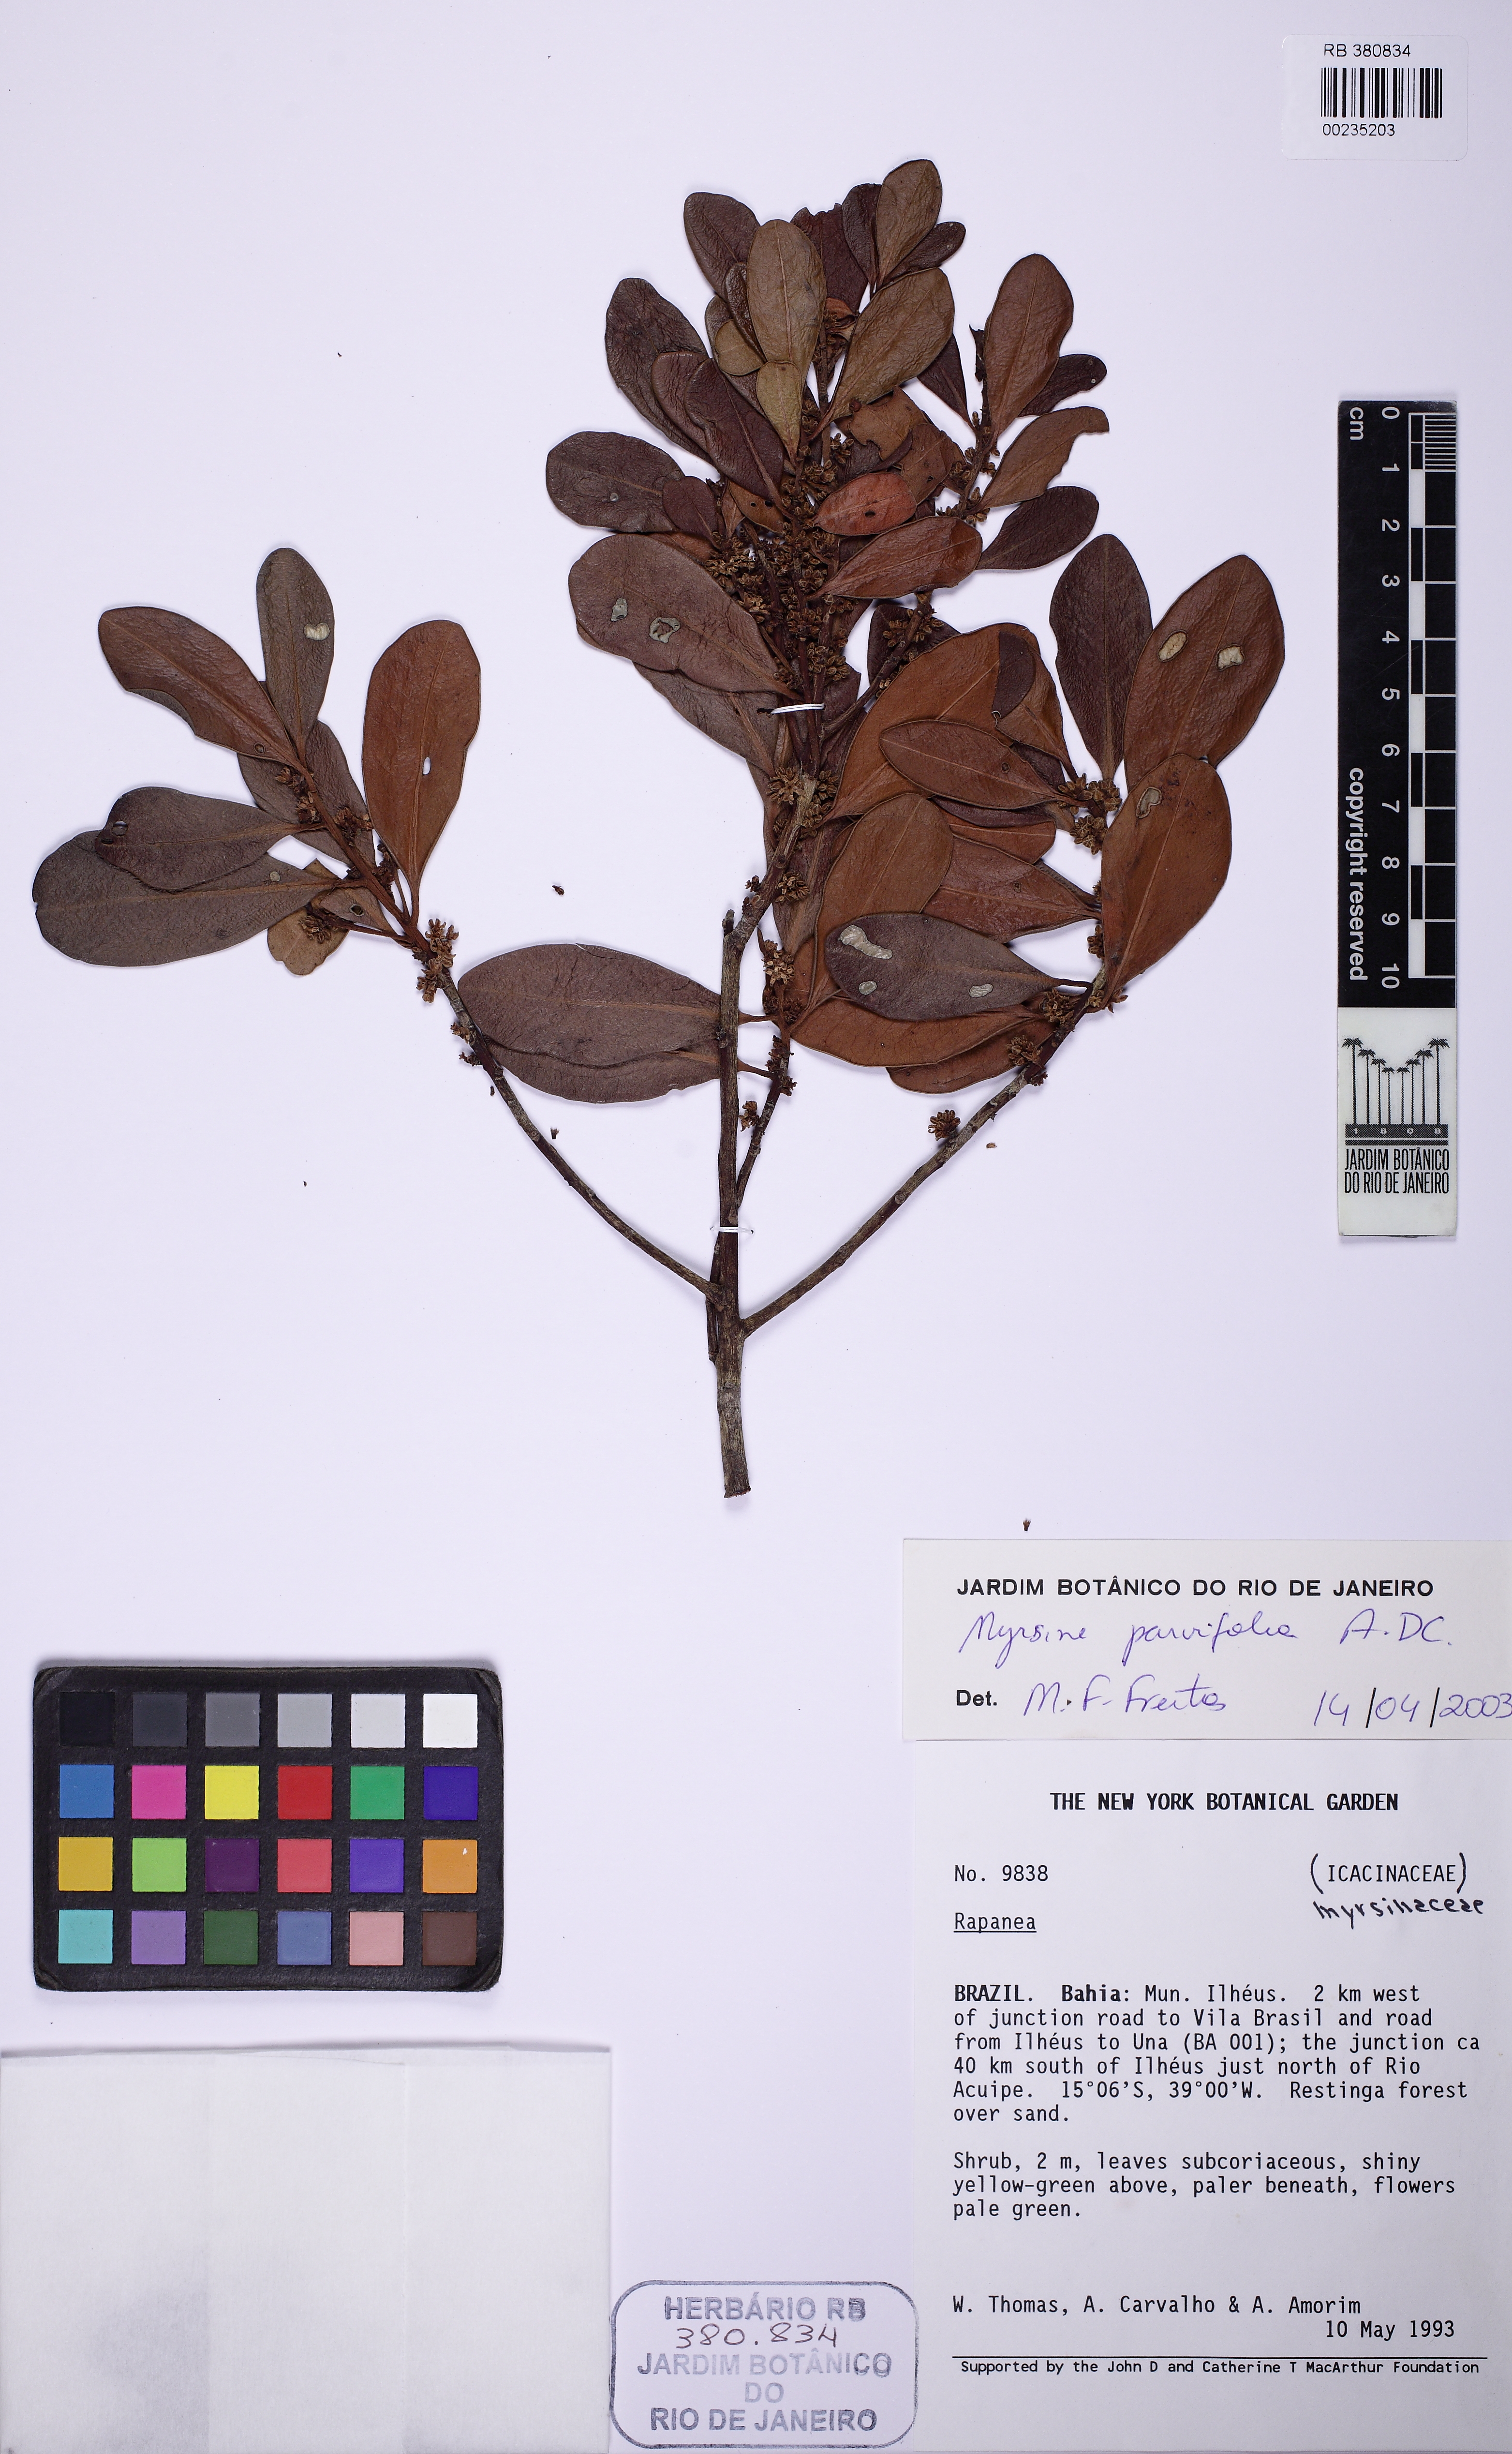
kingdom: Plantae
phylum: Tracheophyta
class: Magnoliopsida
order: Ericales
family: Primulaceae
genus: Myrsine
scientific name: Myrsine parvifolia
